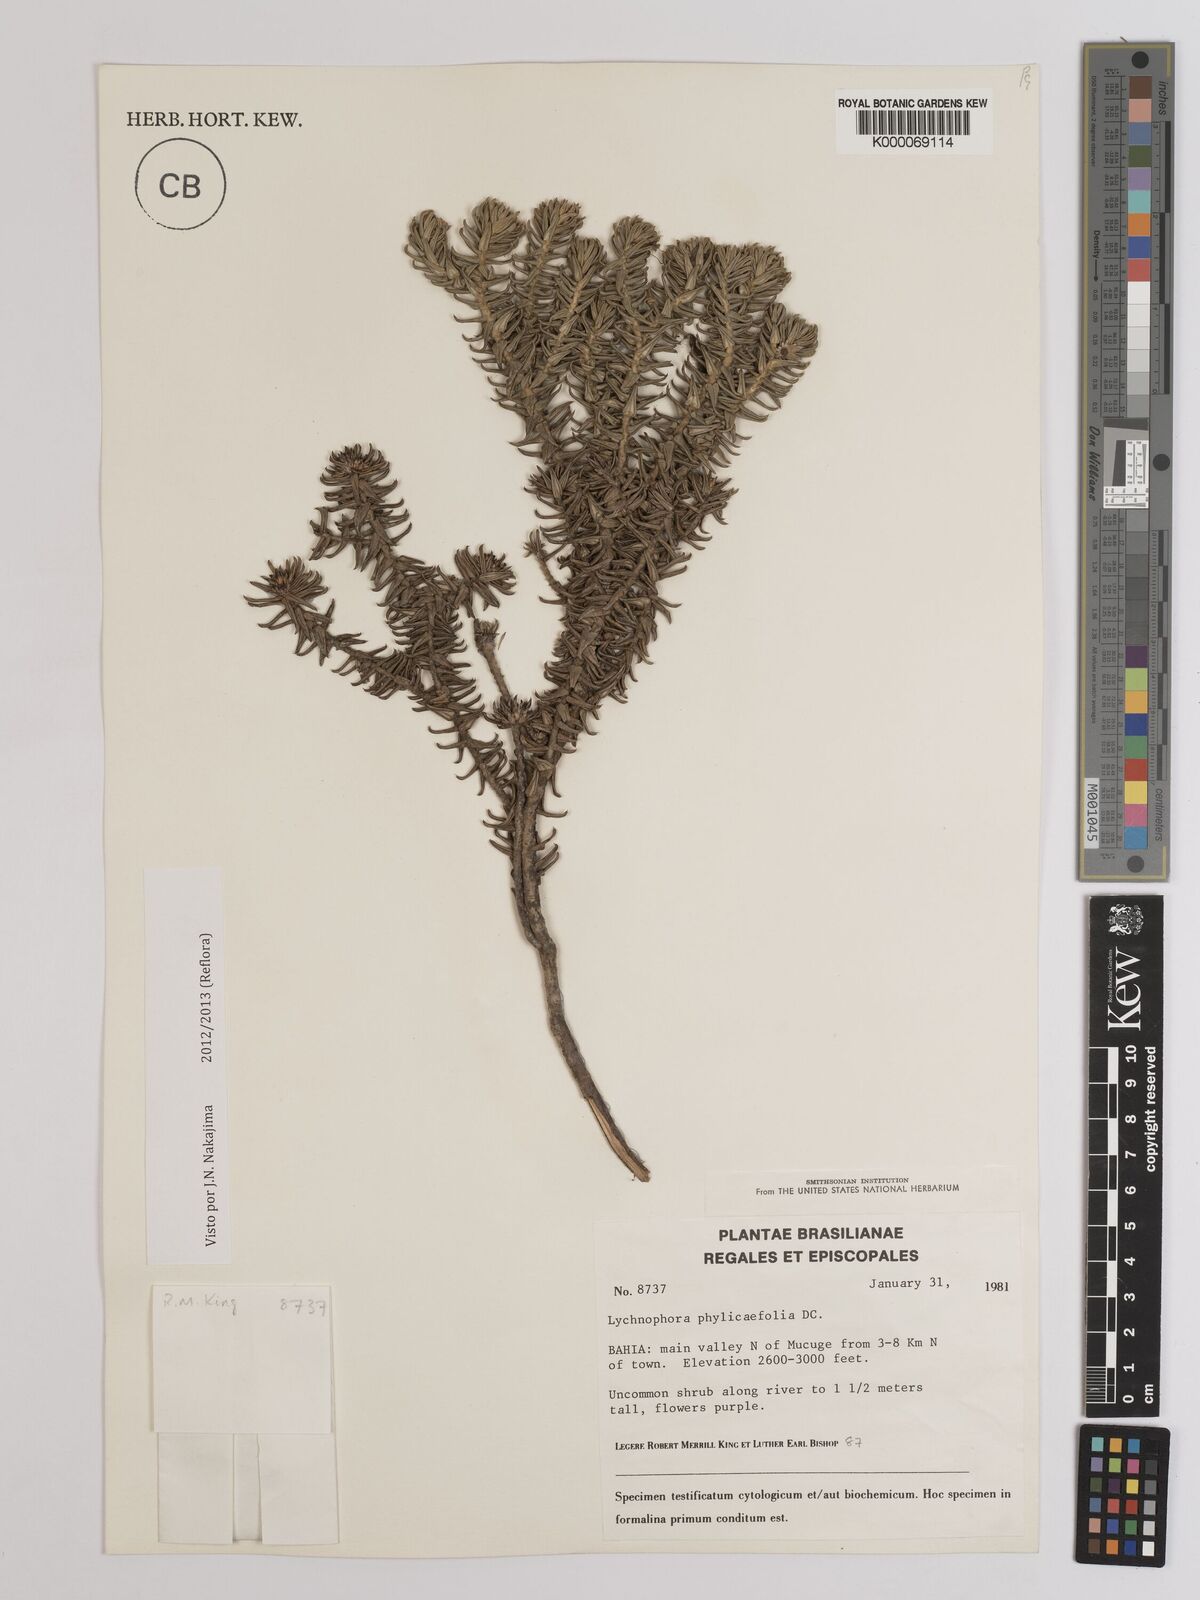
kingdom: Plantae
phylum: Tracheophyta
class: Magnoliopsida
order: Asterales
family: Asteraceae
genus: Lychnophora
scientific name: Lychnophora phylicifolia
